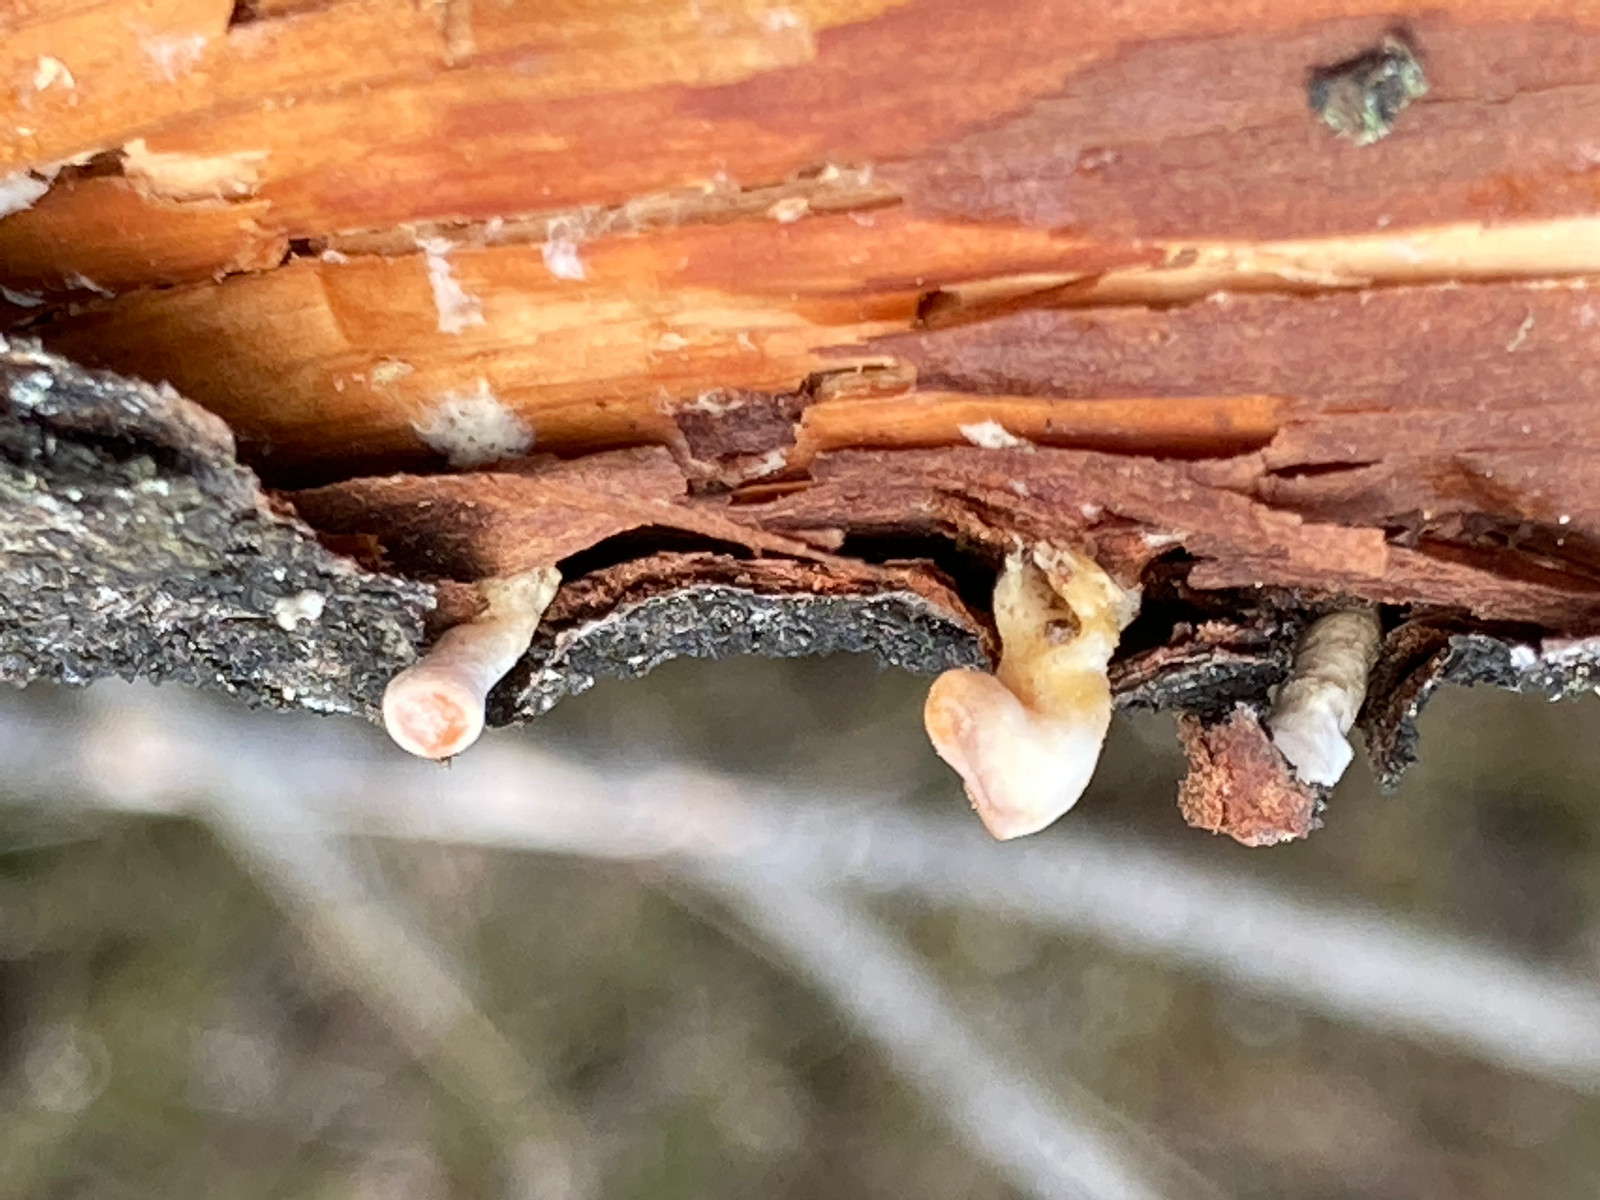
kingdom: Fungi
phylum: Basidiomycota
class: Dacrymycetes
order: Dacrymycetales
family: Dacrymycetaceae
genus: Ditiola
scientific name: Ditiola radicata
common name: rod-tåresvamp
